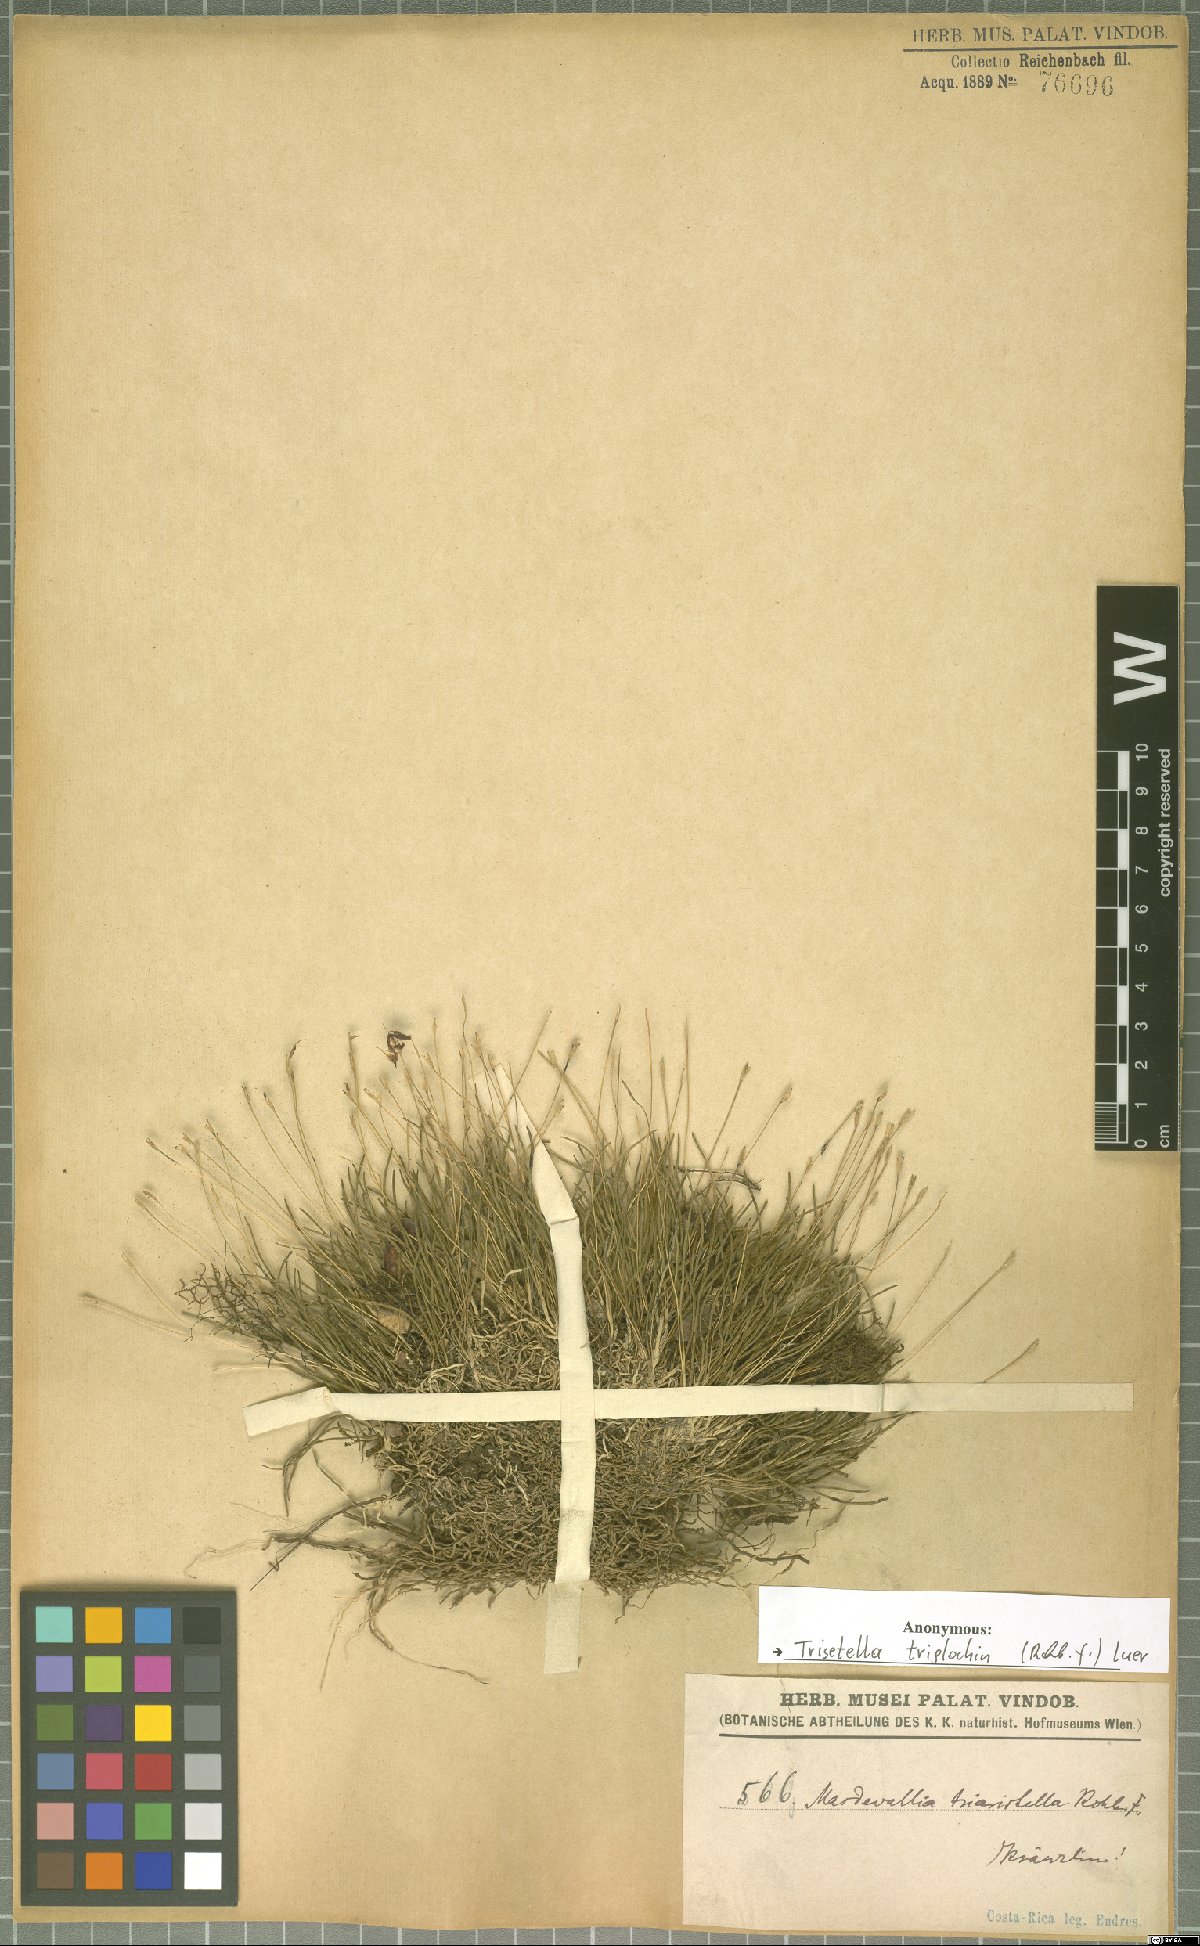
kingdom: Plantae
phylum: Tracheophyta
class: Liliopsida
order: Asparagales
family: Orchidaceae
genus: Trisetella
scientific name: Trisetella triglochin
